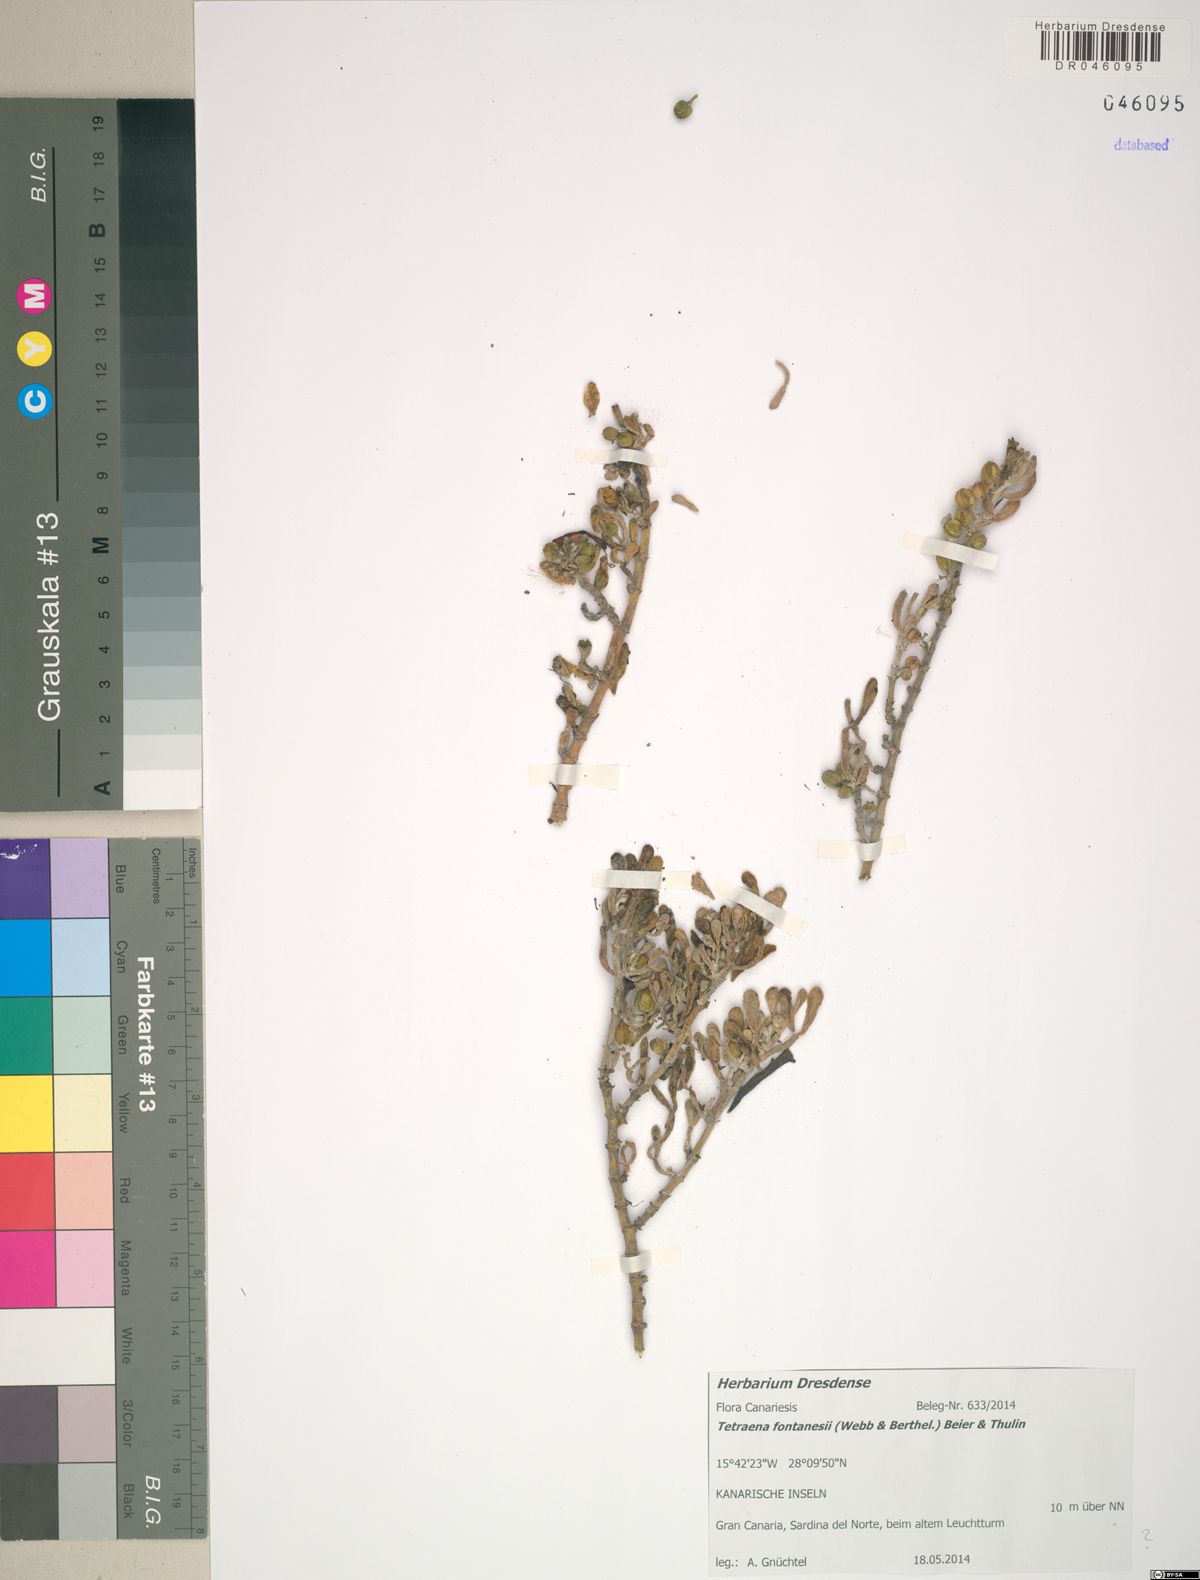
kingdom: Plantae
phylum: Tracheophyta
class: Magnoliopsida
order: Zygophyllales
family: Zygophyllaceae
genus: Tetraena
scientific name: Tetraena fontanesii
